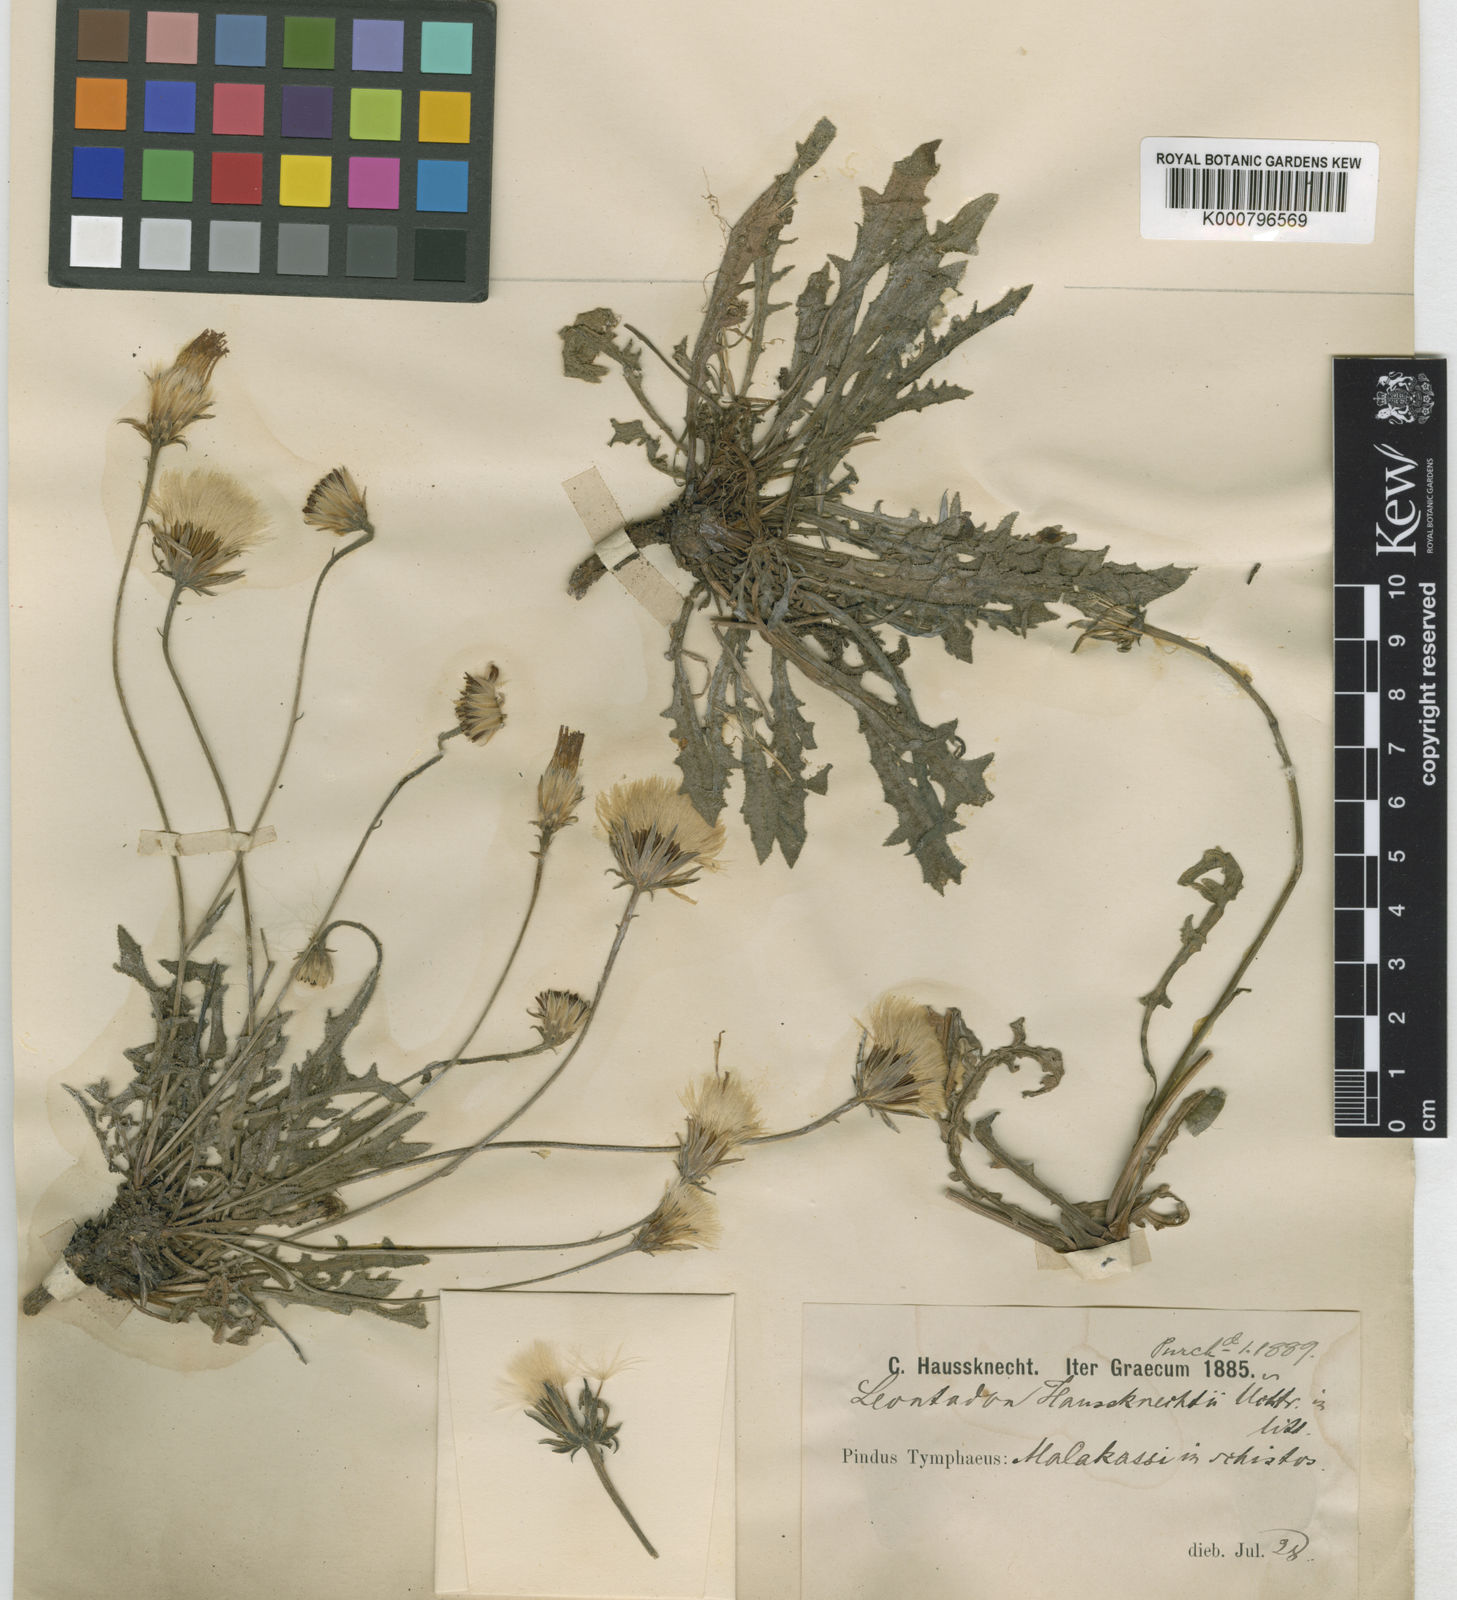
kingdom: Plantae
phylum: Tracheophyta
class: Magnoliopsida
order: Asterales
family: Asteraceae
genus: Hypochaeris
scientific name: Hypochaeris glabra
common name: Smooth catsear
